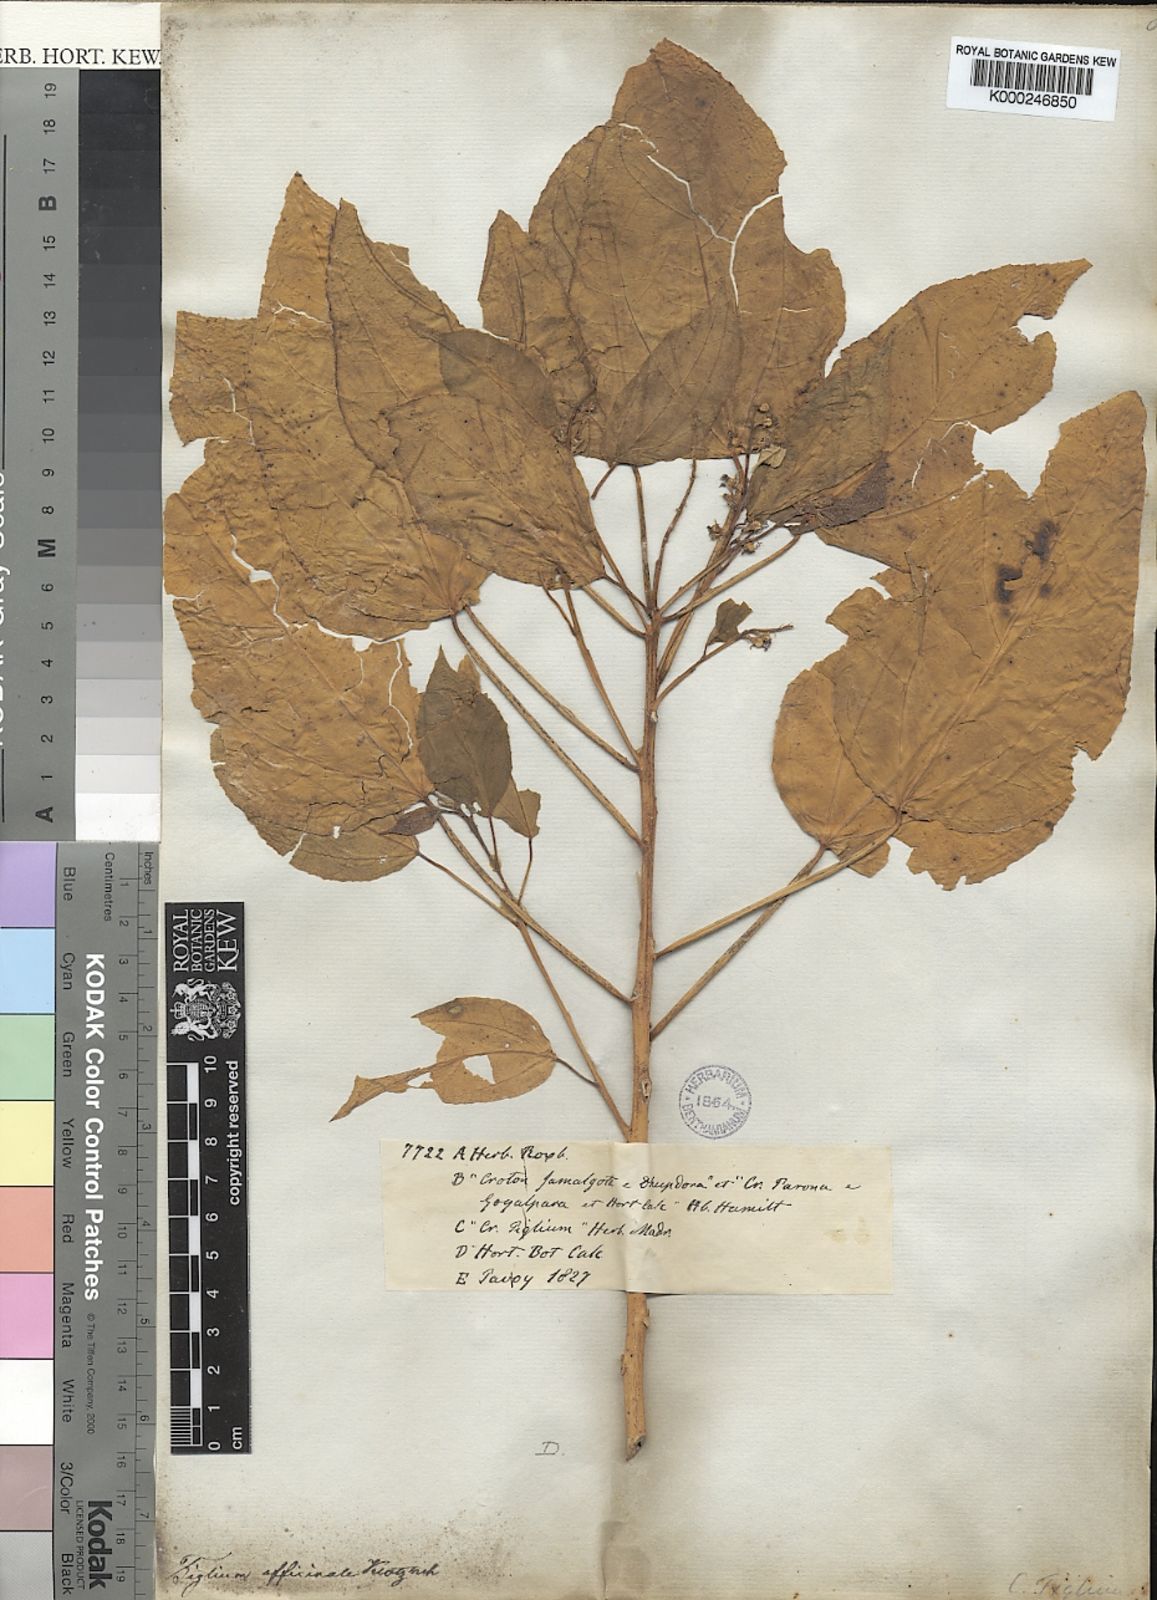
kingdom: Plantae
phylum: Tracheophyta
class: Magnoliopsida
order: Malpighiales
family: Euphorbiaceae
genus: Croton
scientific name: Croton tiglium
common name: Purging croton
